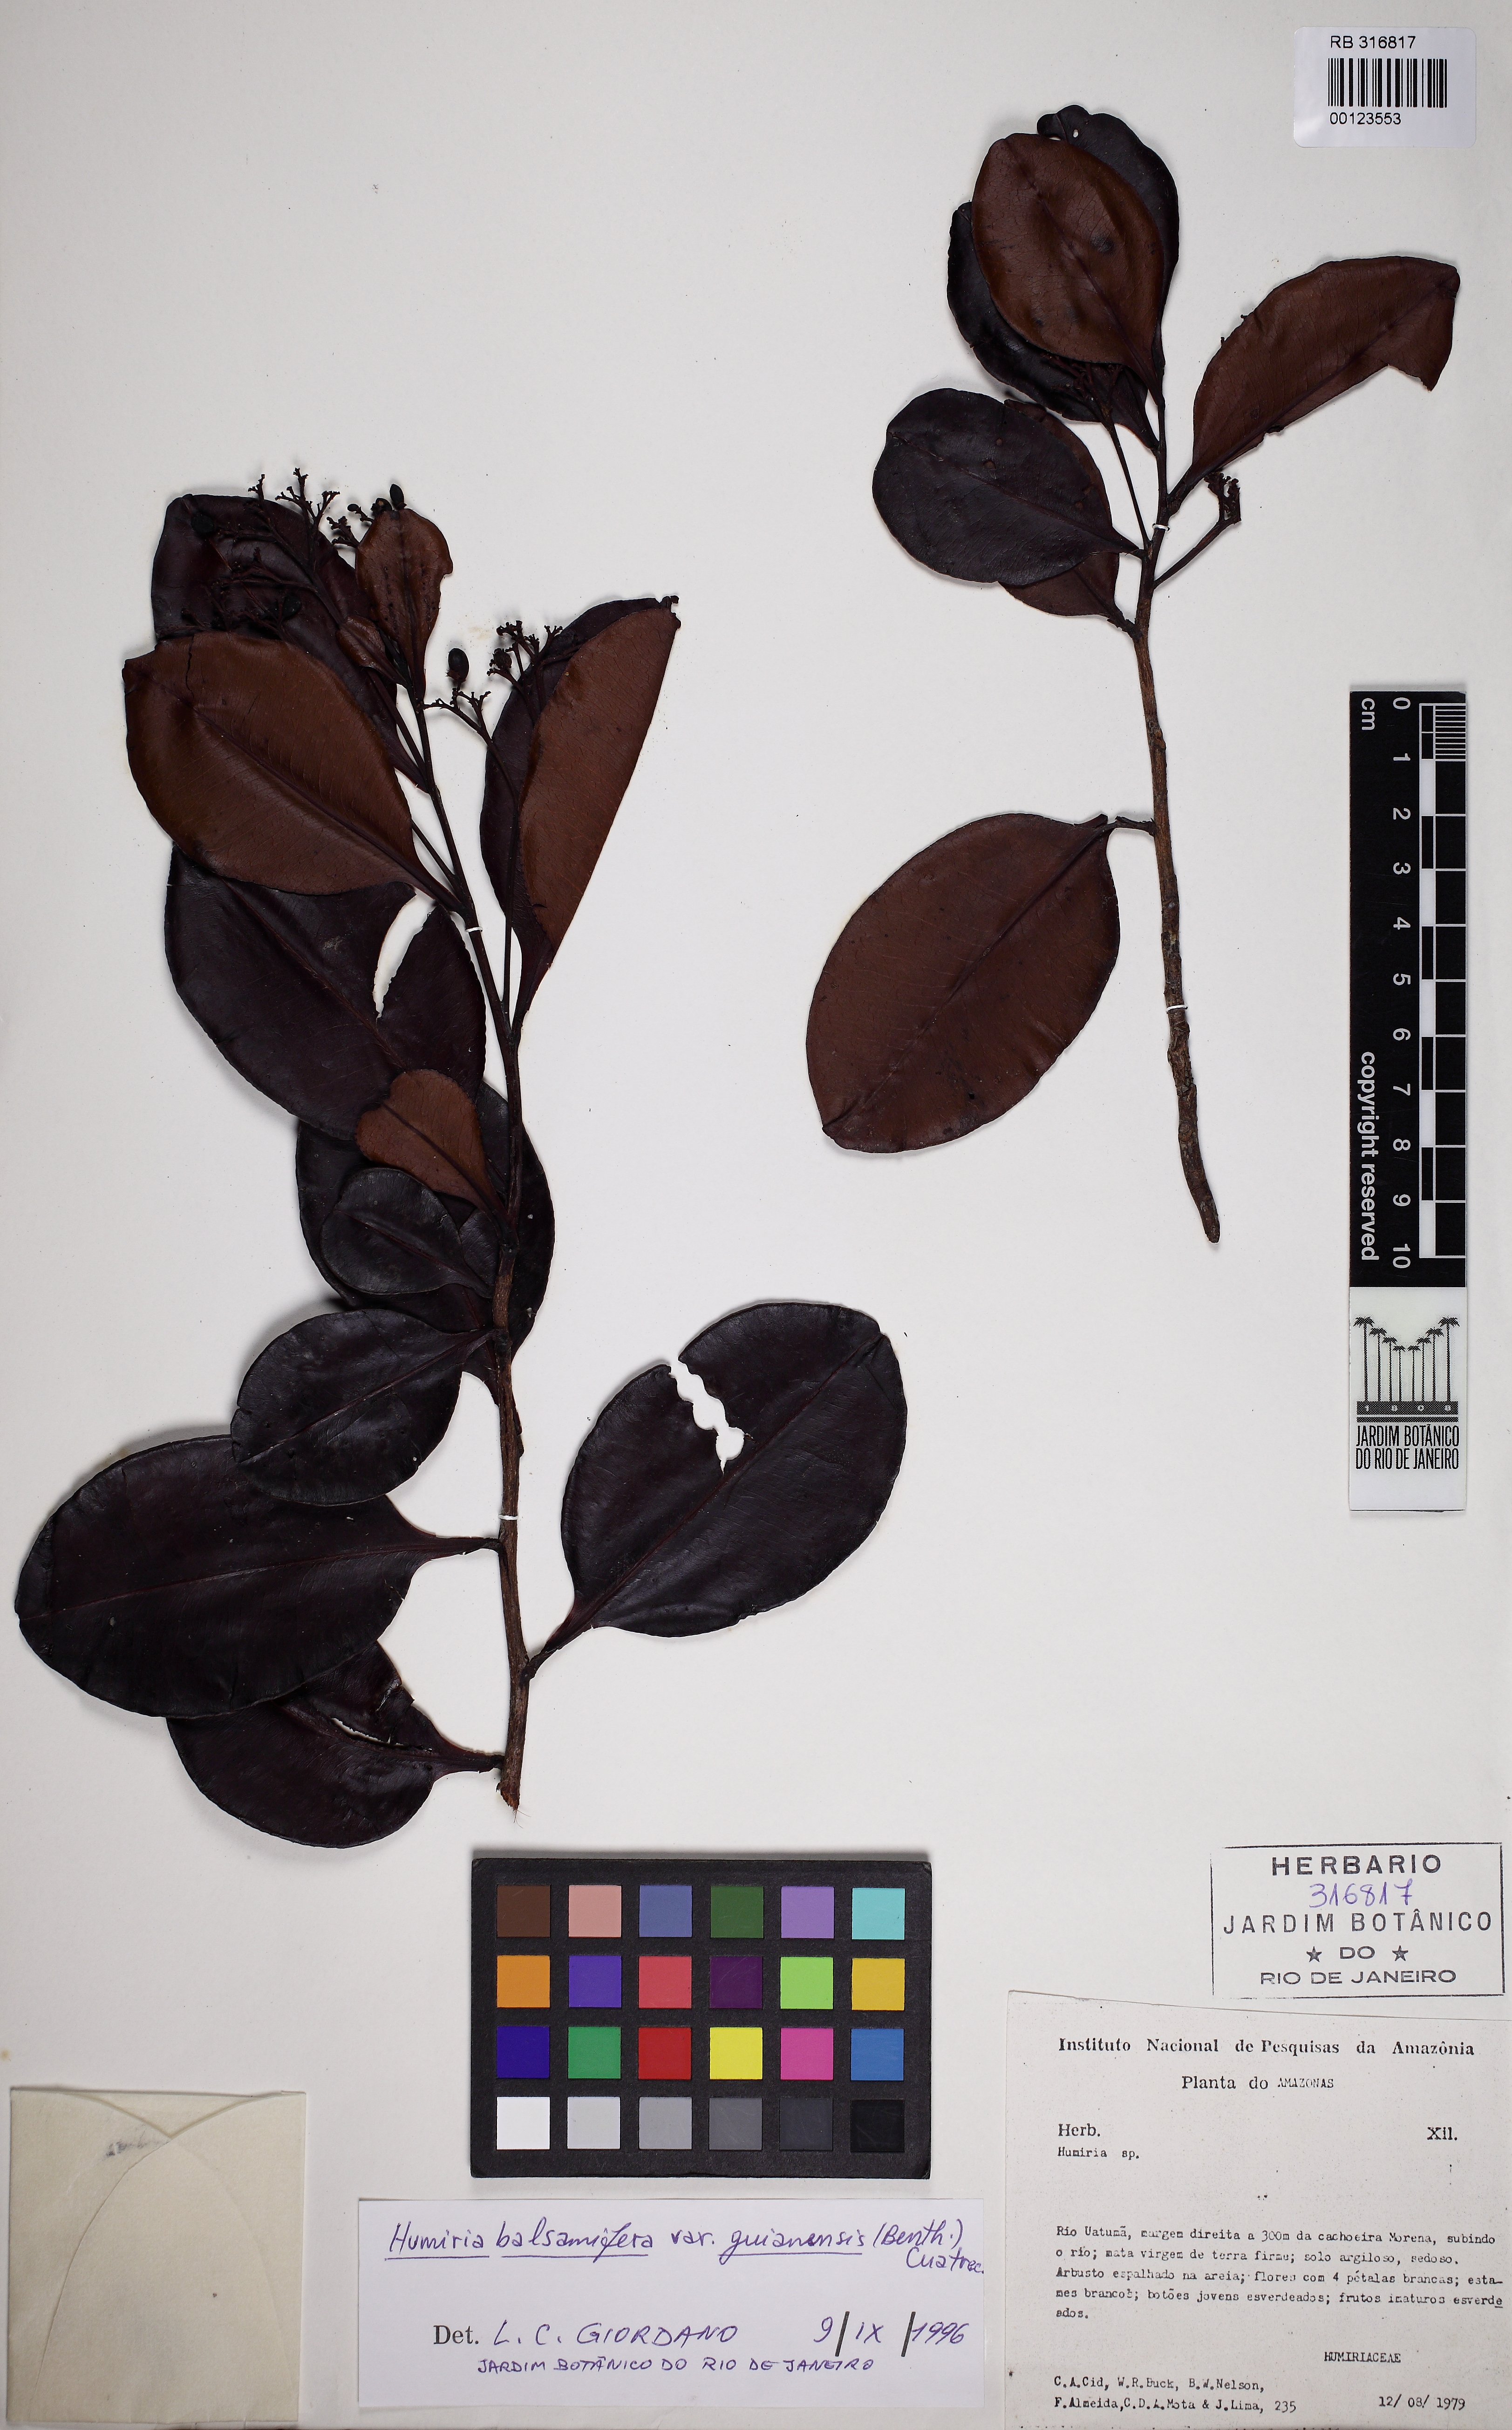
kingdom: Plantae
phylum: Tracheophyta
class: Magnoliopsida
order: Malpighiales
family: Humiriaceae
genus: Humiria
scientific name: Humiria balsamifera
